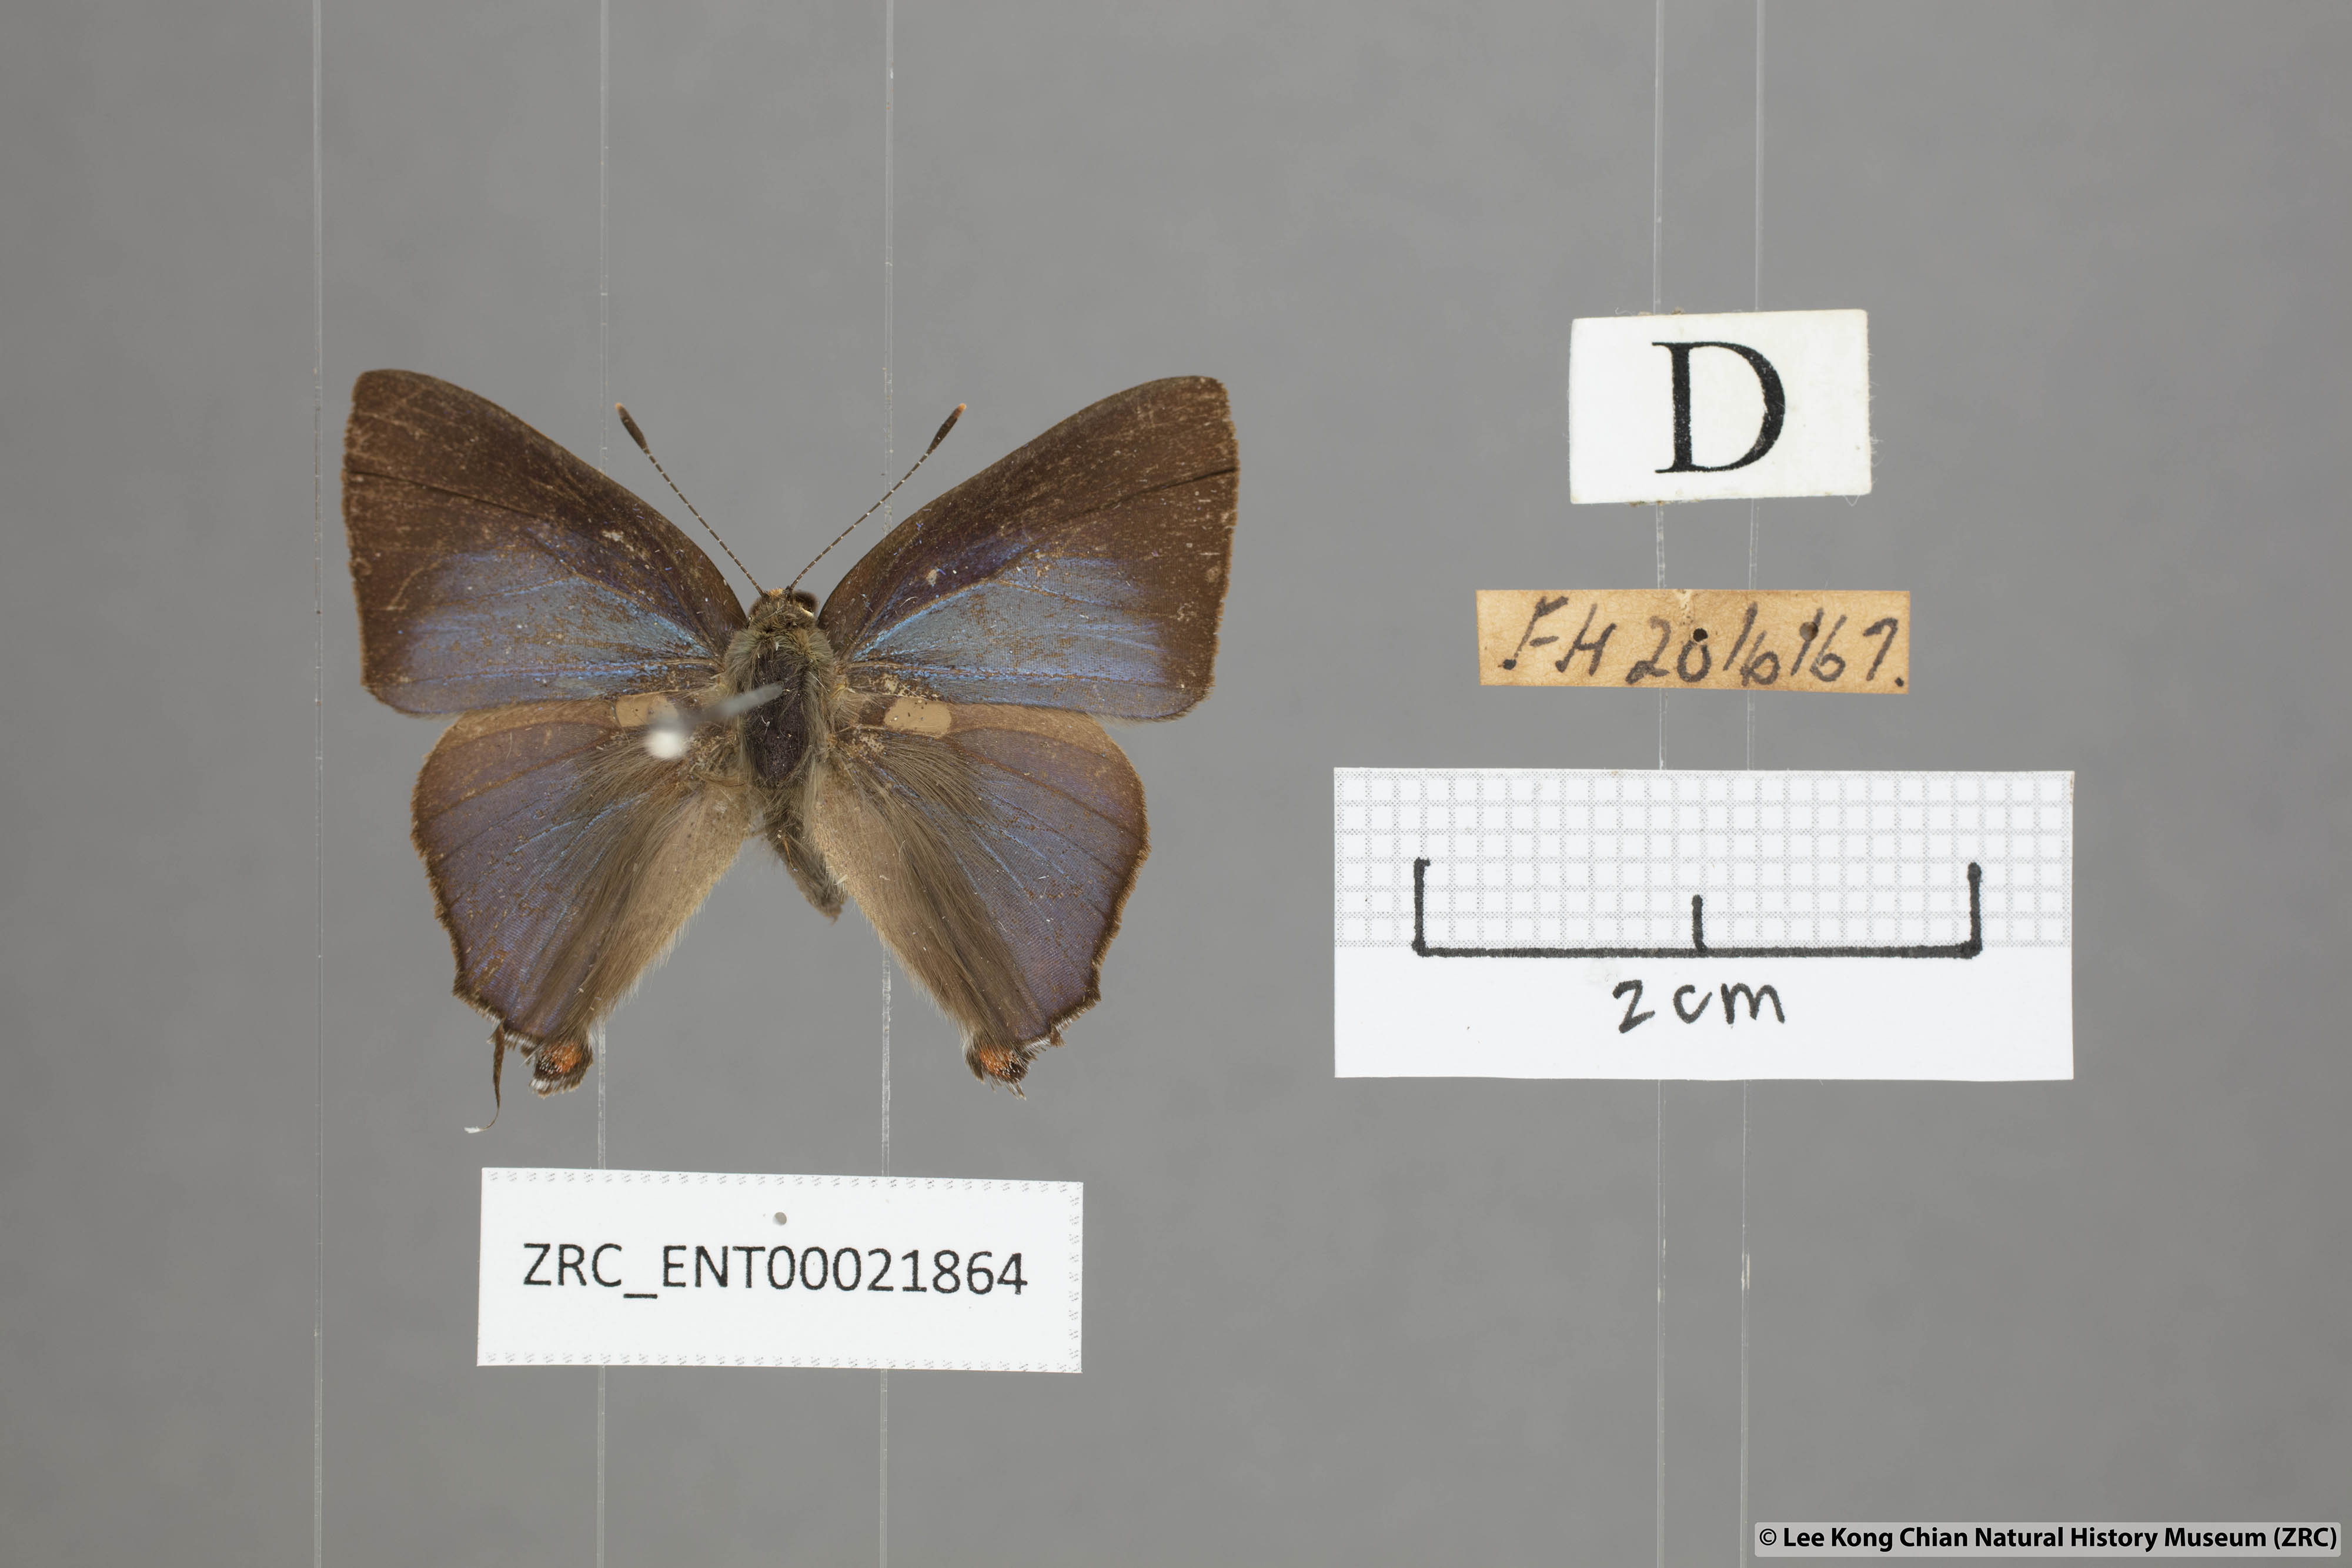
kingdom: Animalia
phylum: Arthropoda
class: Insecta
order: Lepidoptera
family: Lycaenidae
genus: Rapala
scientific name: Rapala nissa
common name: Common flash
